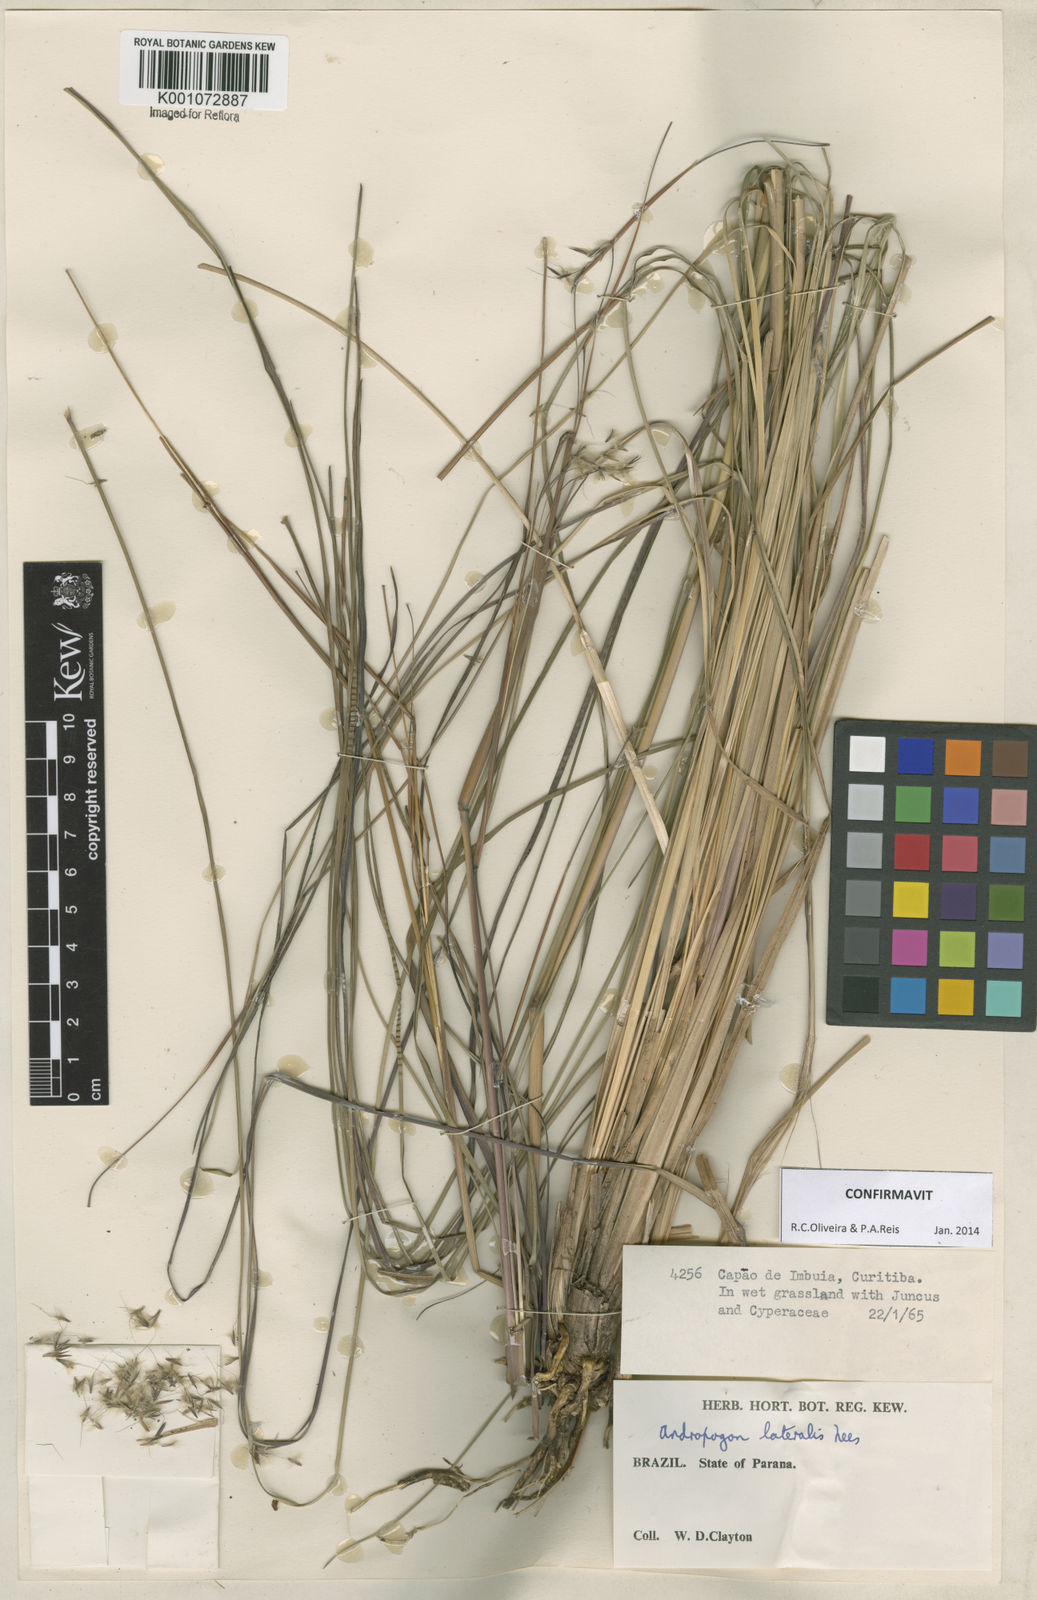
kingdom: Plantae
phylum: Tracheophyta
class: Liliopsida
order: Poales
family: Poaceae
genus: Andropogon
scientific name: Andropogon lateralis
